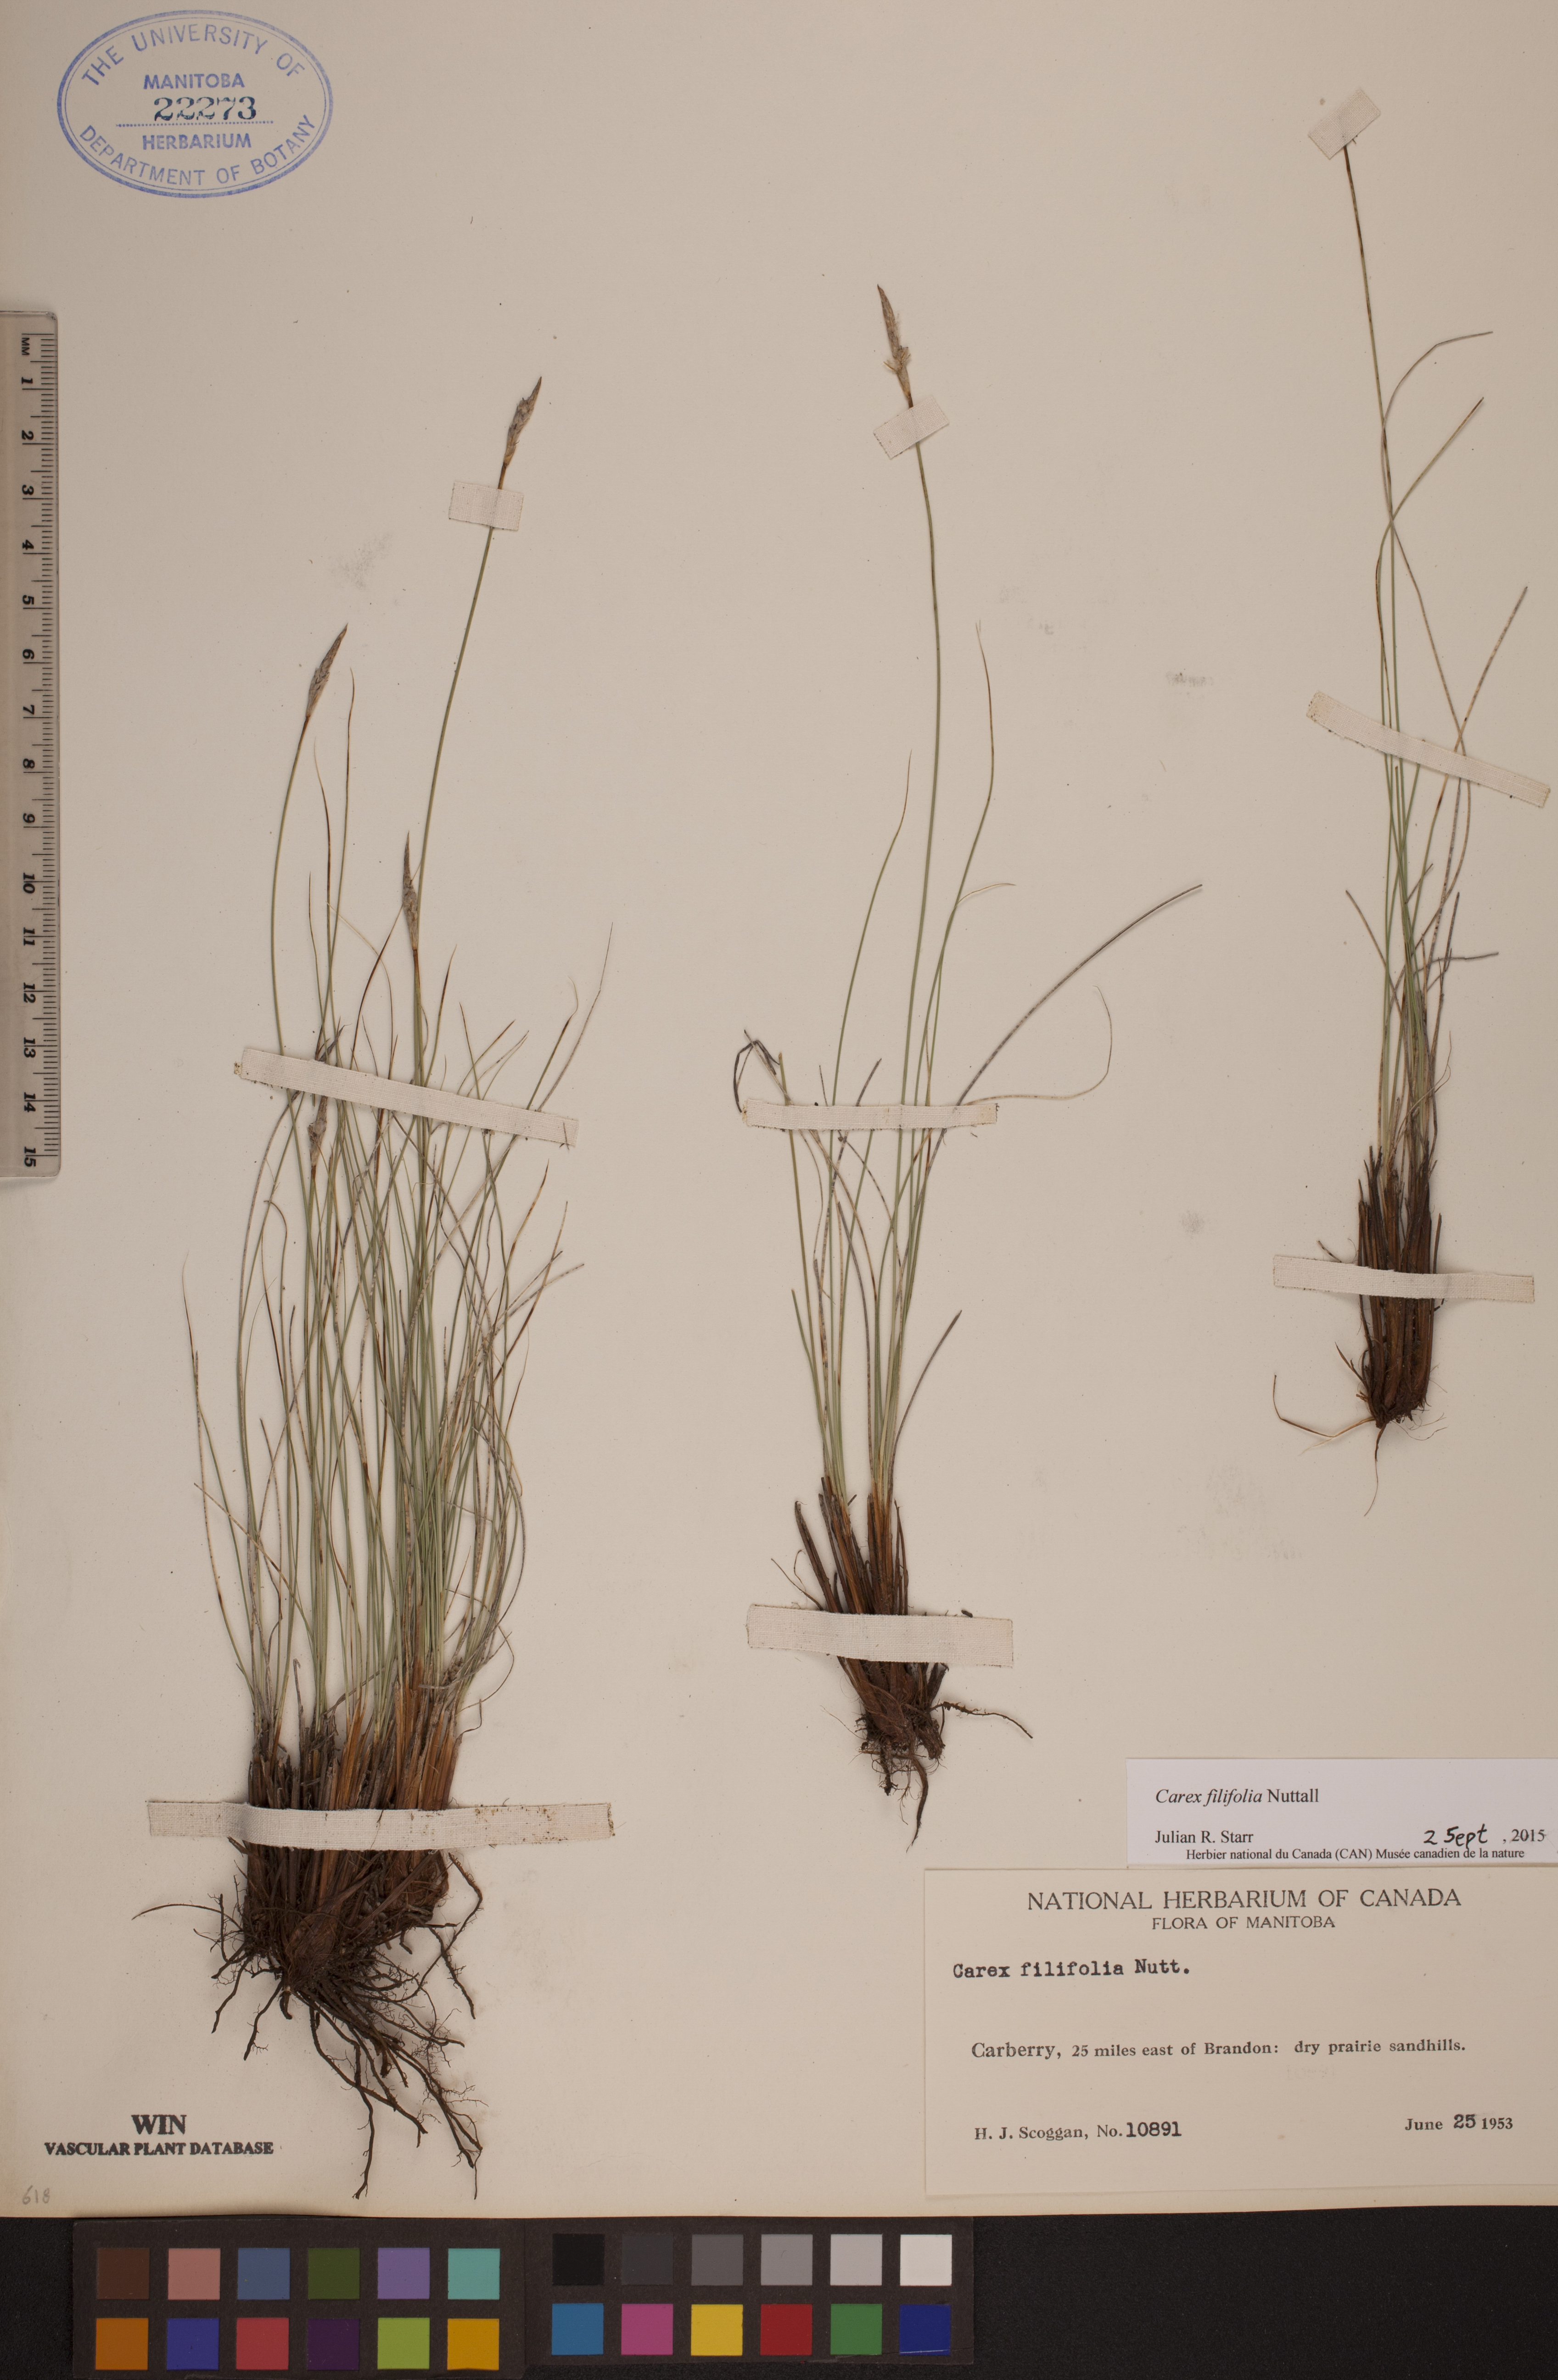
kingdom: Plantae
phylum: Tracheophyta
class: Liliopsida
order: Poales
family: Cyperaceae
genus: Carex
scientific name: Carex filifolia
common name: Threadleaf sedge
